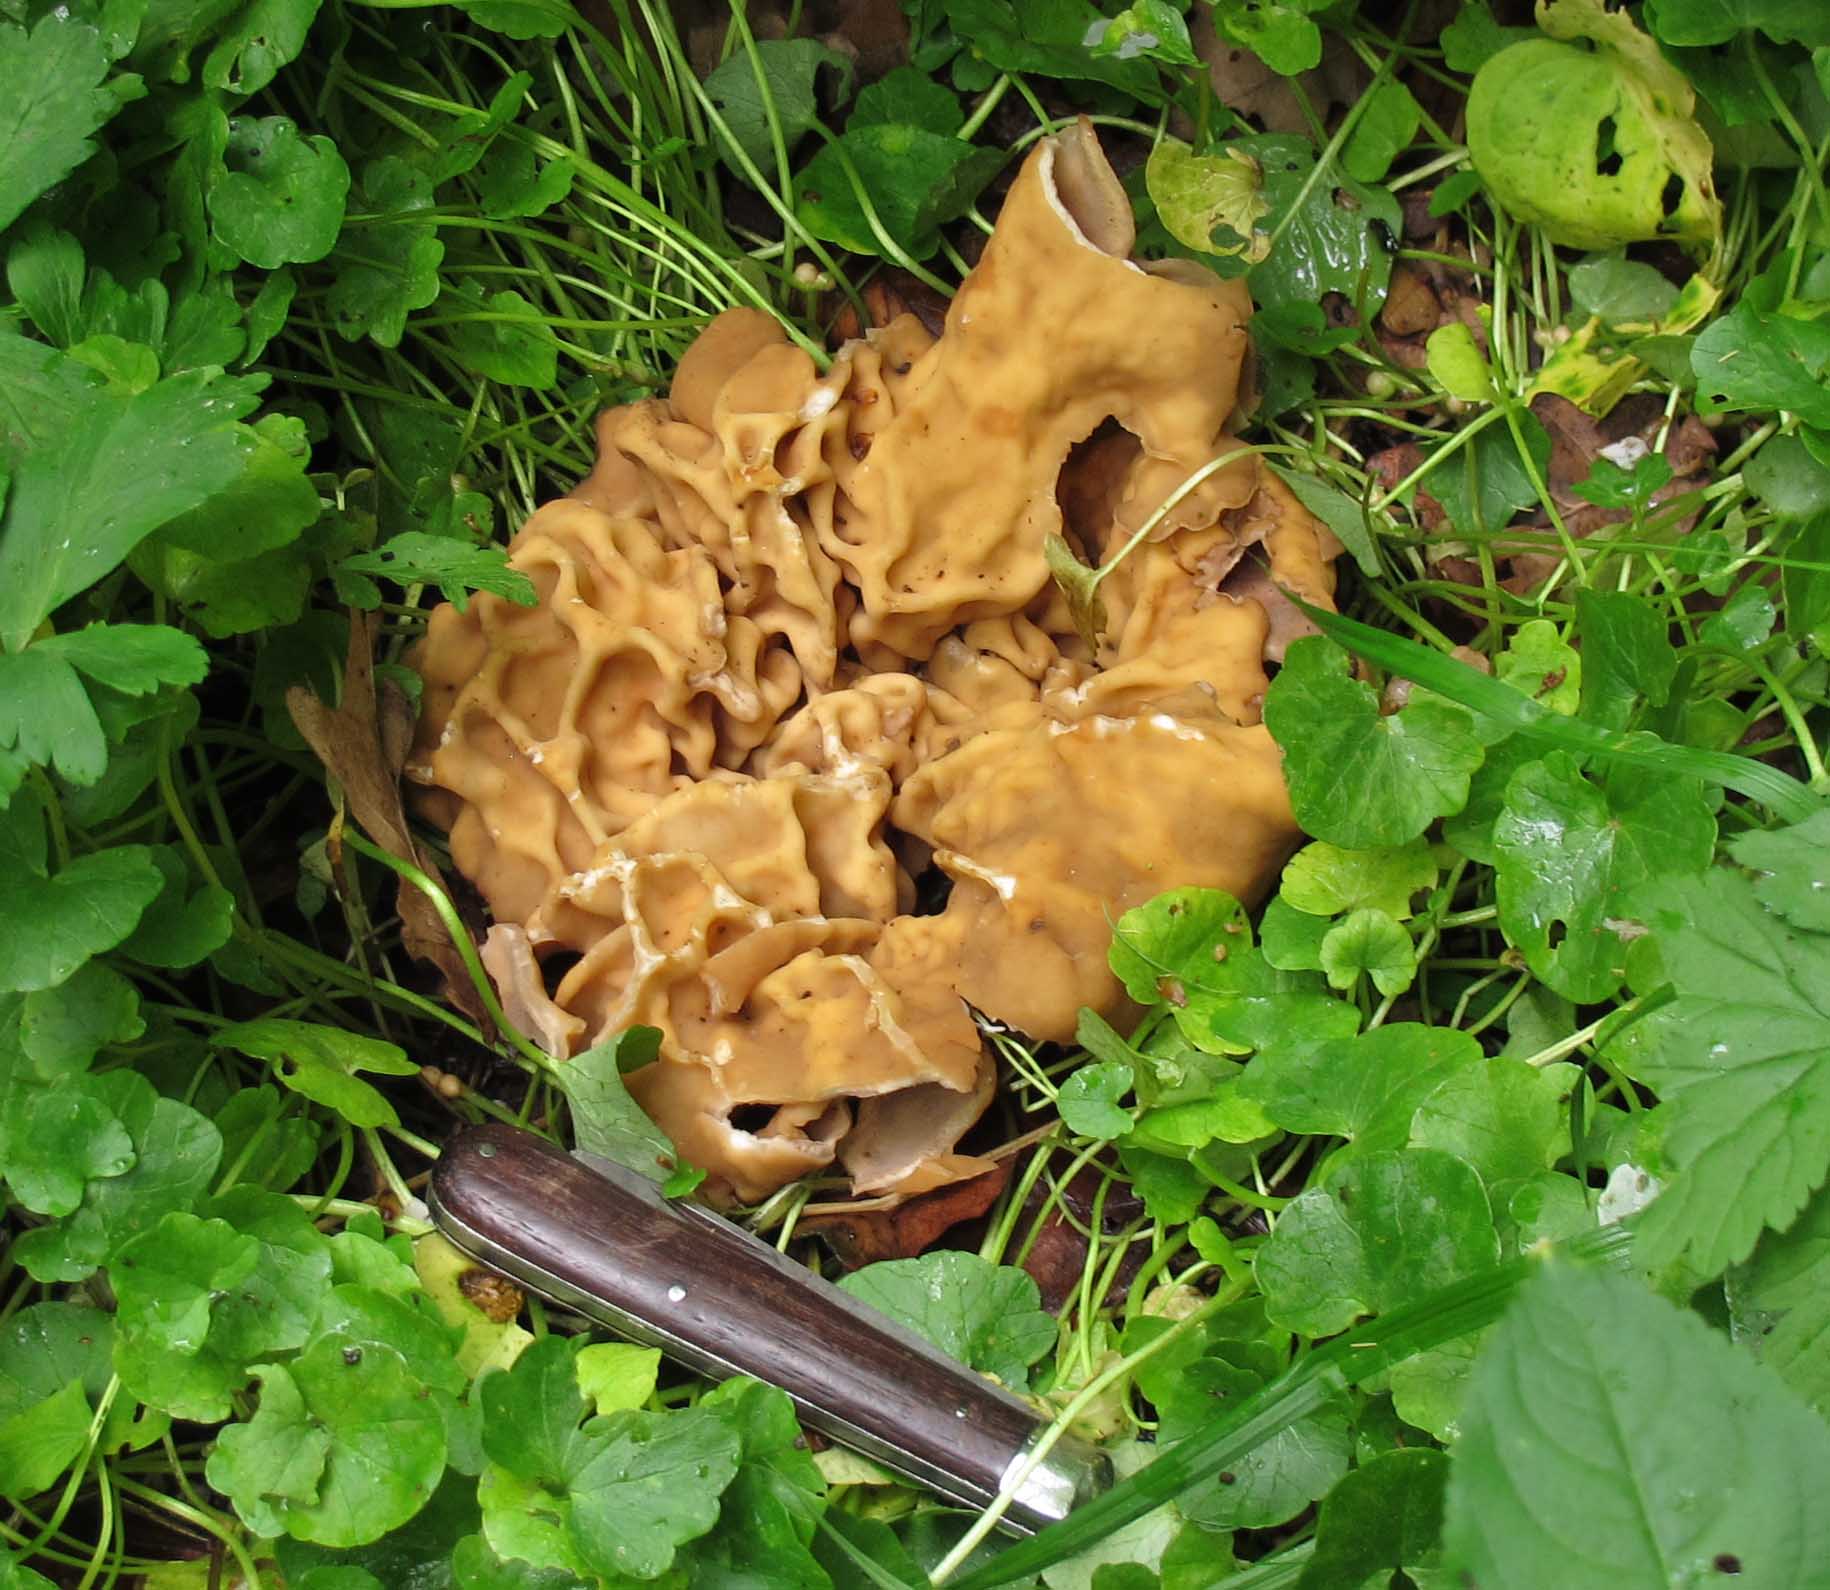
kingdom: Fungi
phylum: Ascomycota
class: Pezizomycetes
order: Pezizales
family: Morchellaceae
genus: Disciotis
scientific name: Disciotis venosa
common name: klor-bægermorkel
